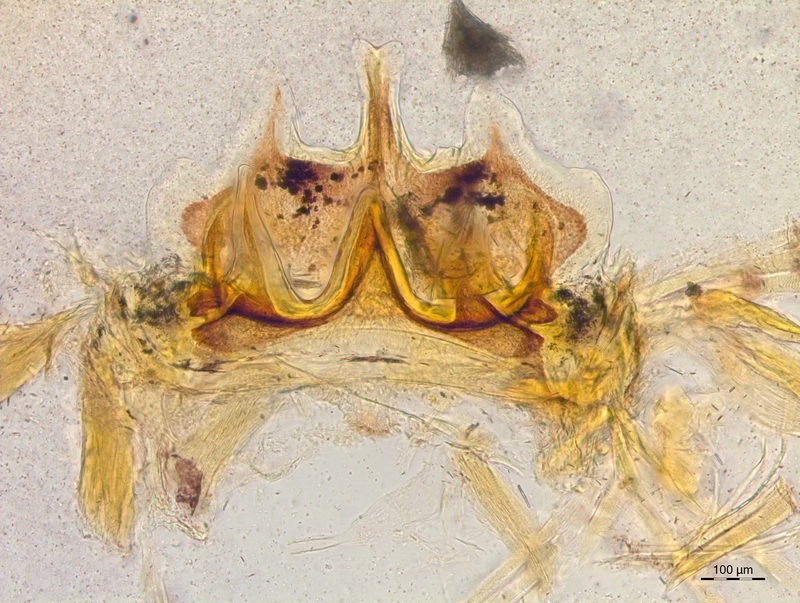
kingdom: Animalia
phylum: Arthropoda
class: Diplopoda
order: Chordeumatida
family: Craspedosomatidae
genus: Craspedosoma
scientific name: Craspedosoma rawlinsii
